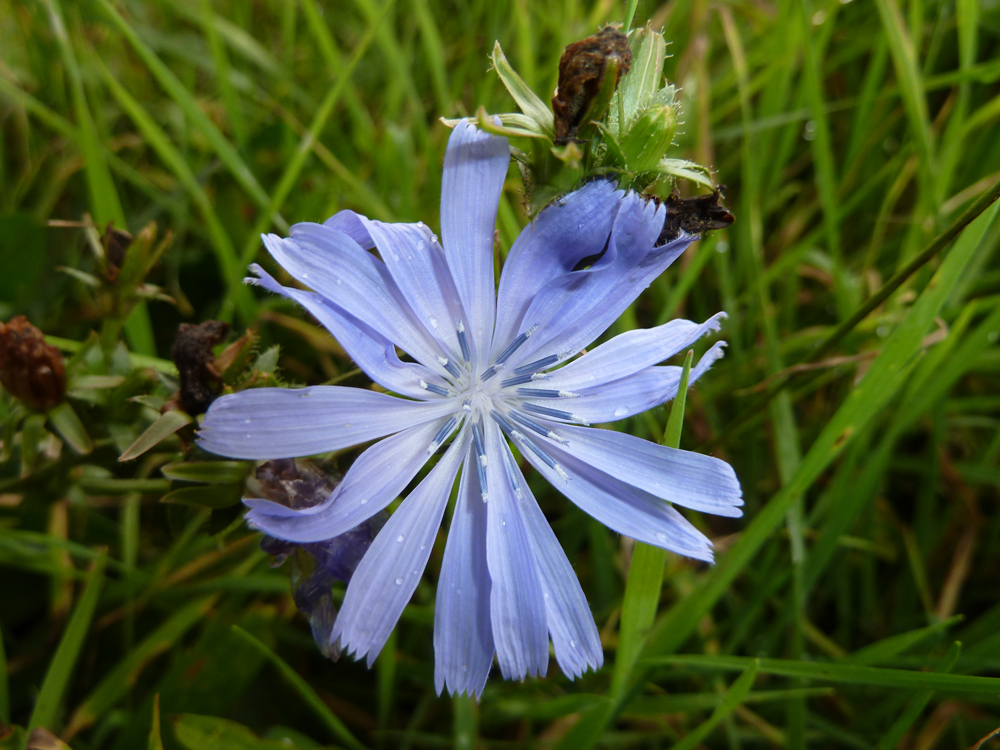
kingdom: Plantae
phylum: Tracheophyta
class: Magnoliopsida
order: Asterales
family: Asteraceae
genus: Cichorium
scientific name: Cichorium intybus
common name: Chicory
